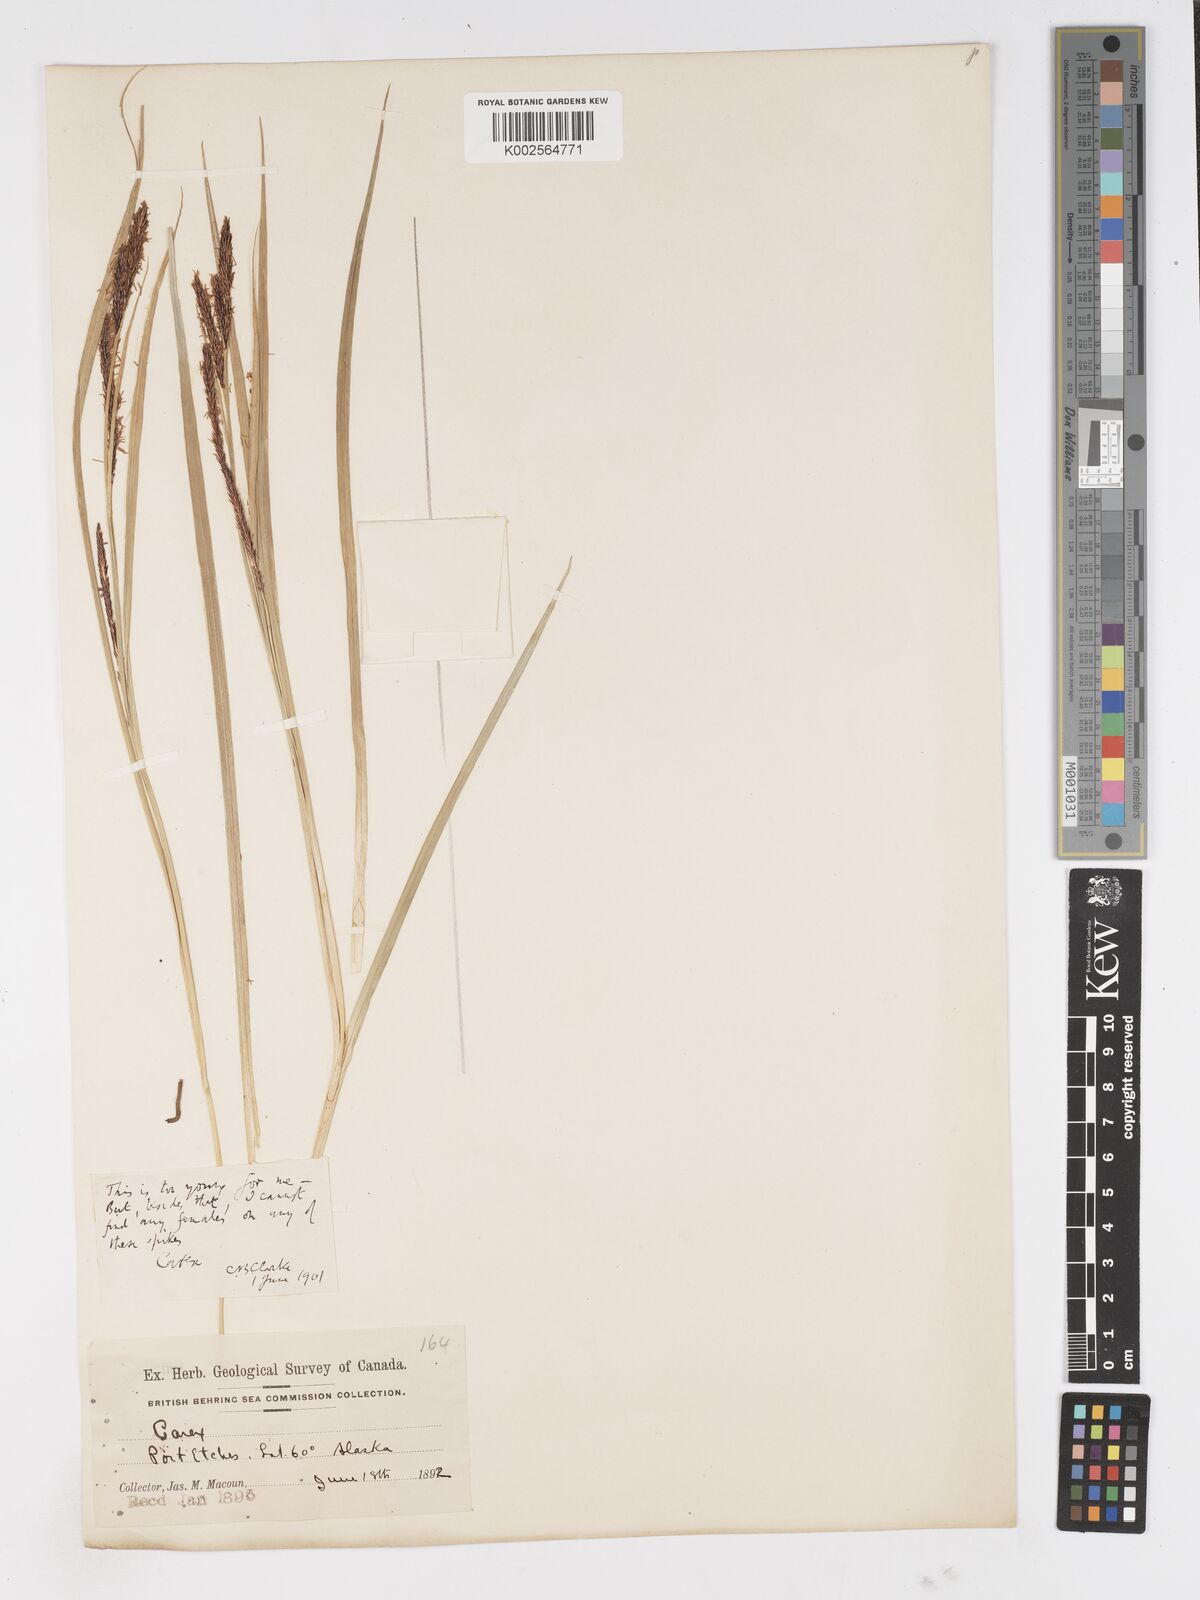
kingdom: Plantae
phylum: Tracheophyta
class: Liliopsida
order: Poales
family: Cyperaceae
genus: Carex
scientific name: Carex
